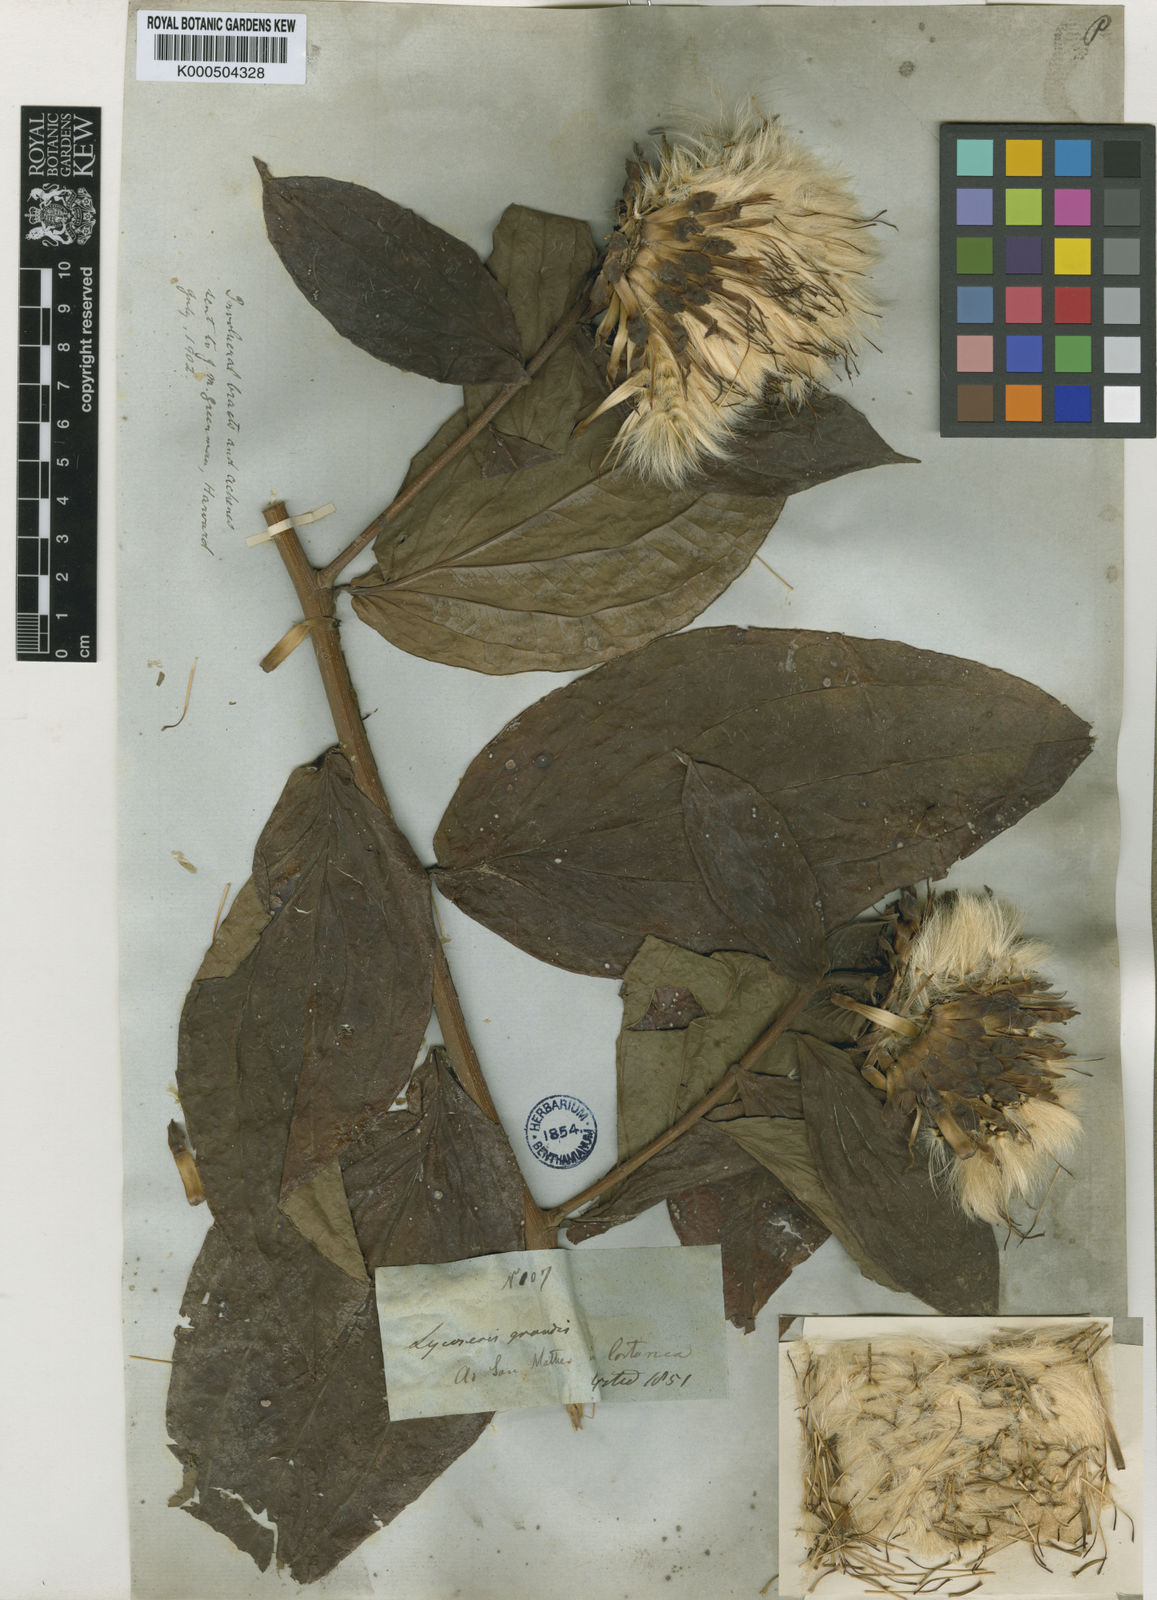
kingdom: Plantae
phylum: Tracheophyta
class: Magnoliopsida
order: Asterales
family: Asteraceae
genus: Lycoseris
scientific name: Lycoseris grandis
